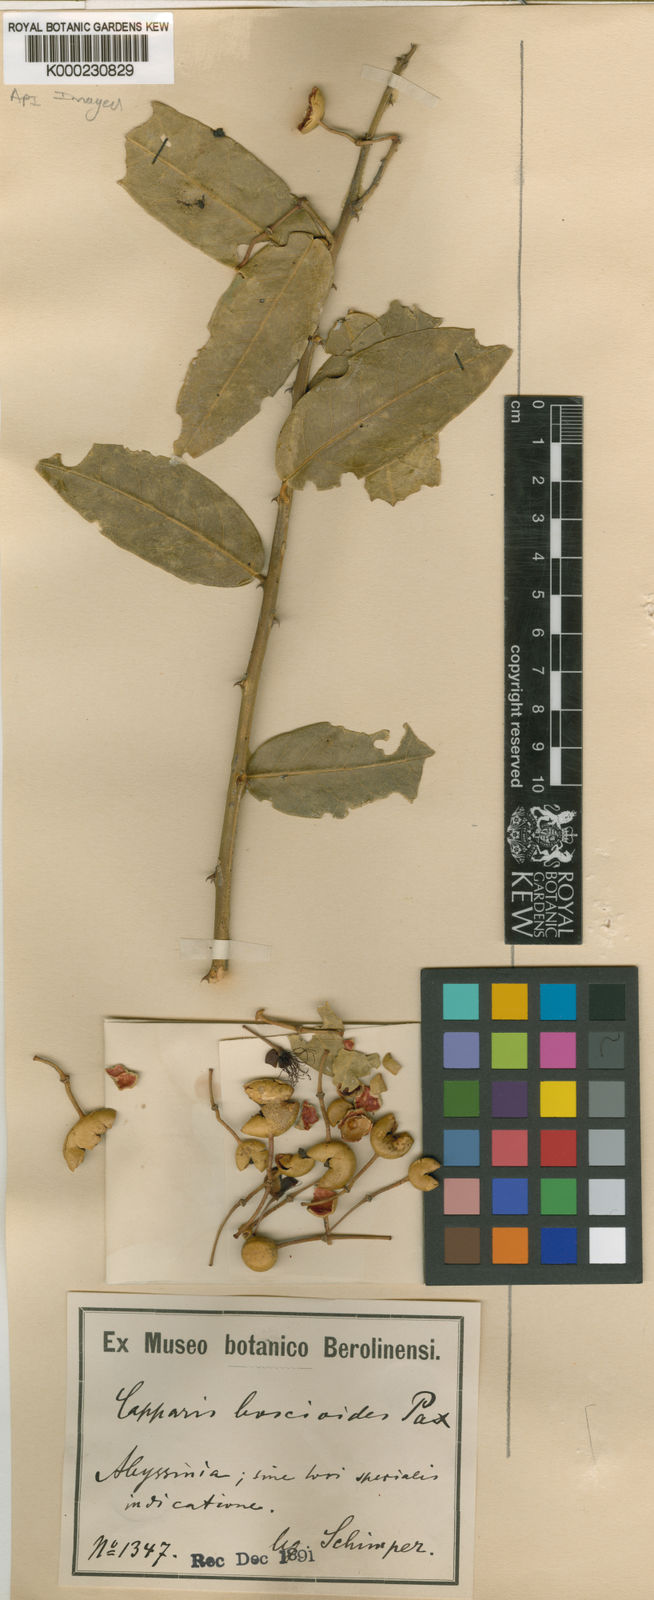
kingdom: Plantae
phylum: Tracheophyta
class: Magnoliopsida
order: Brassicales
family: Capparaceae
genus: Capparis
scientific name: Capparis
